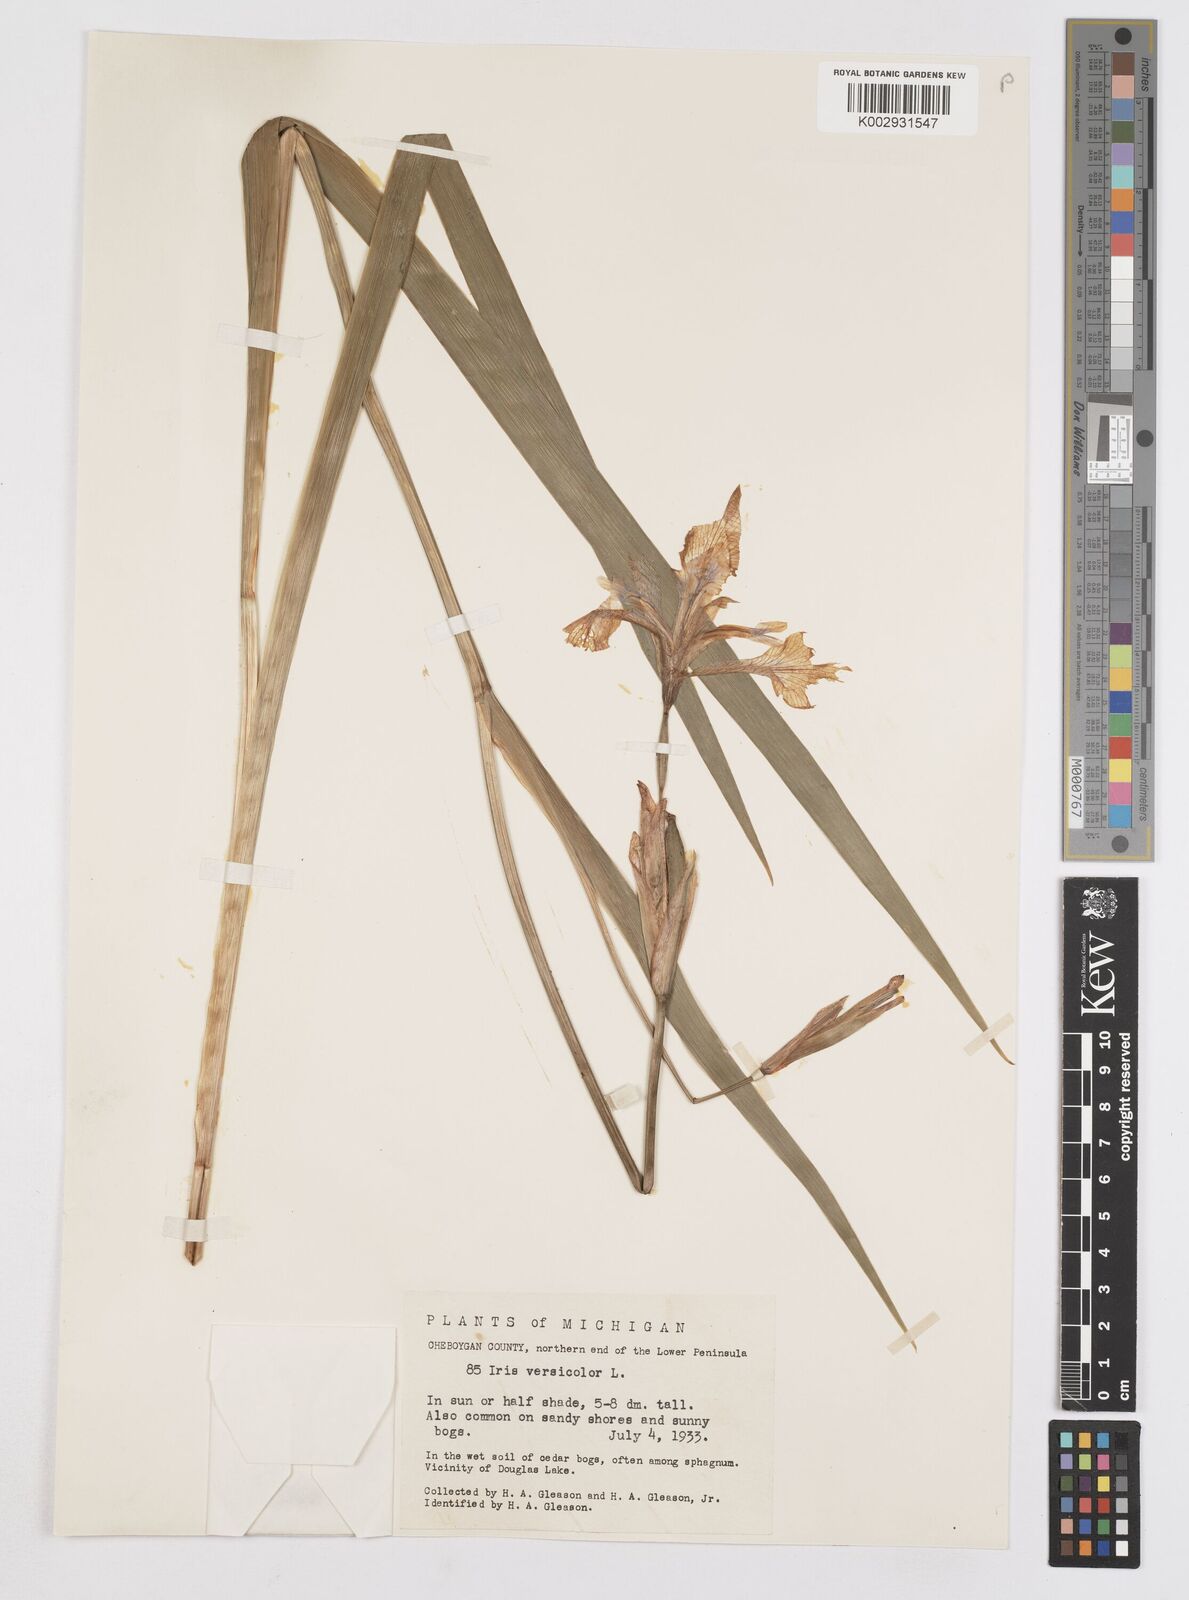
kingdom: Plantae
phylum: Tracheophyta
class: Liliopsida
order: Asparagales
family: Iridaceae
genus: Iris
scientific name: Iris versicolor
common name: Purple iris
